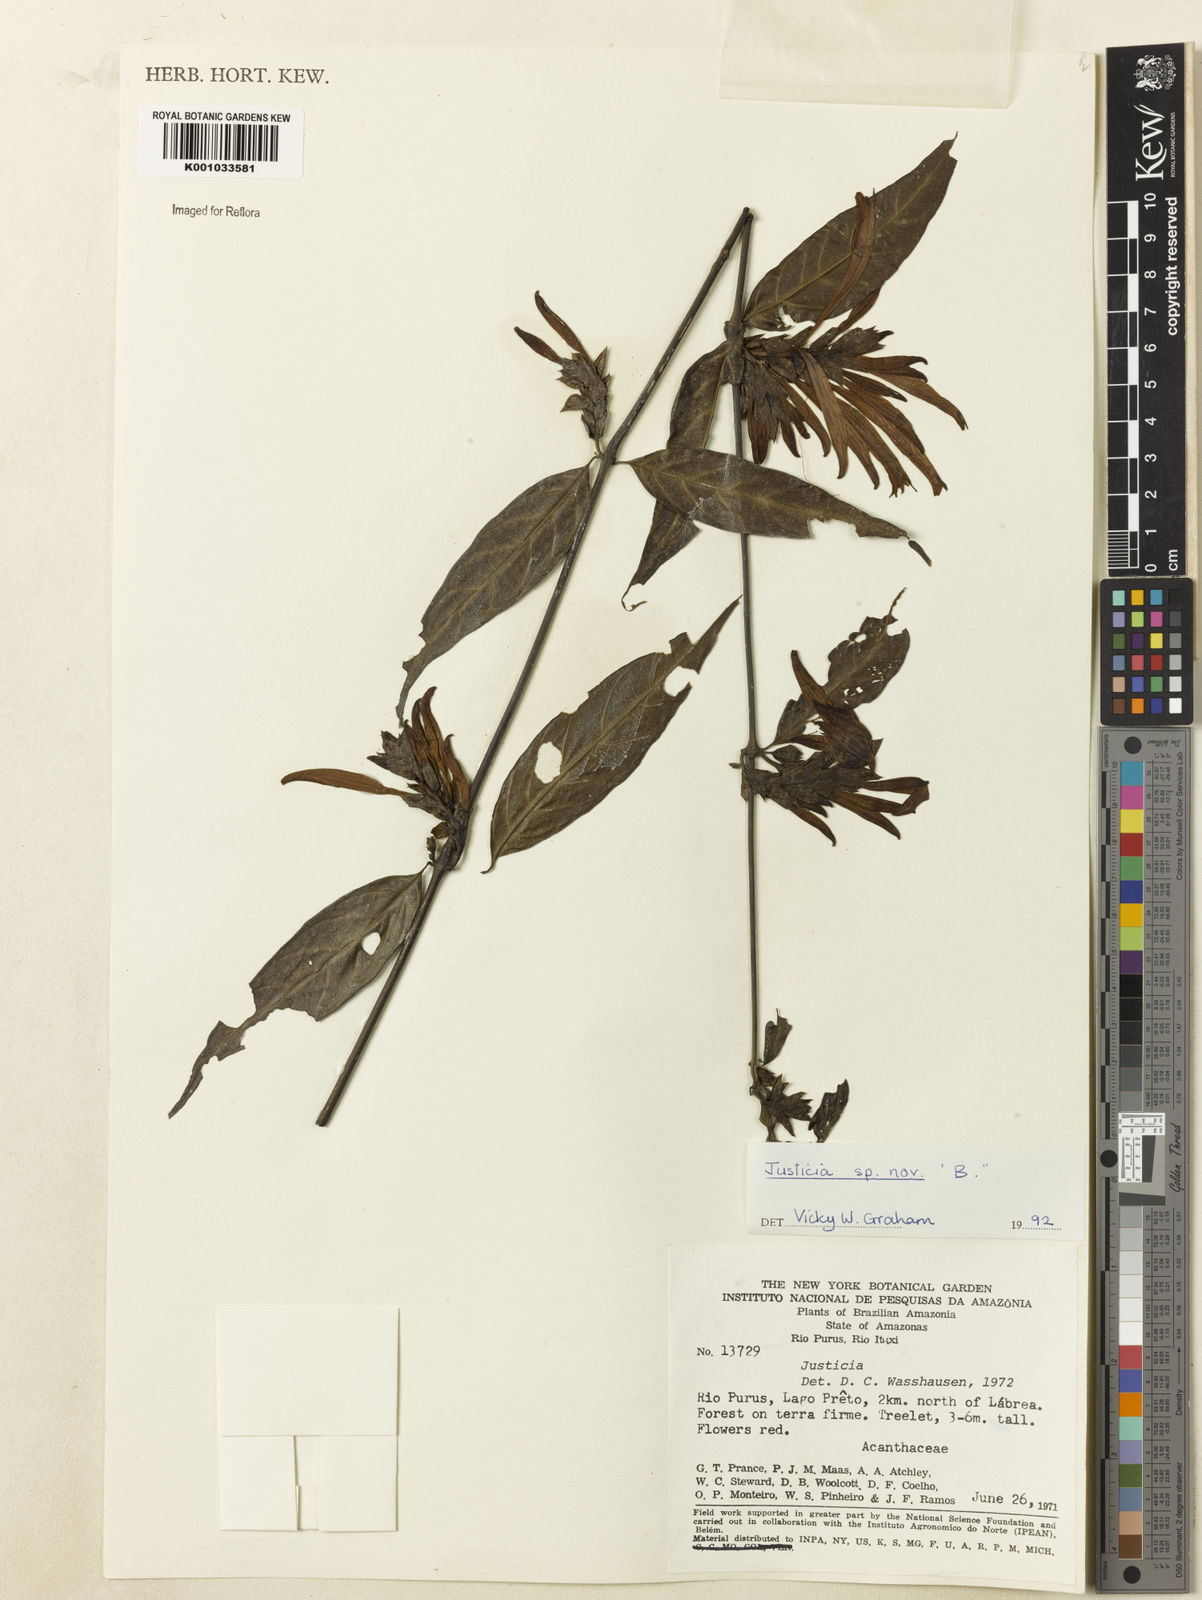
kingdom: Plantae
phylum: Tracheophyta
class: Magnoliopsida
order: Lamiales
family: Acanthaceae
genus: Justicia
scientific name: Justicia
